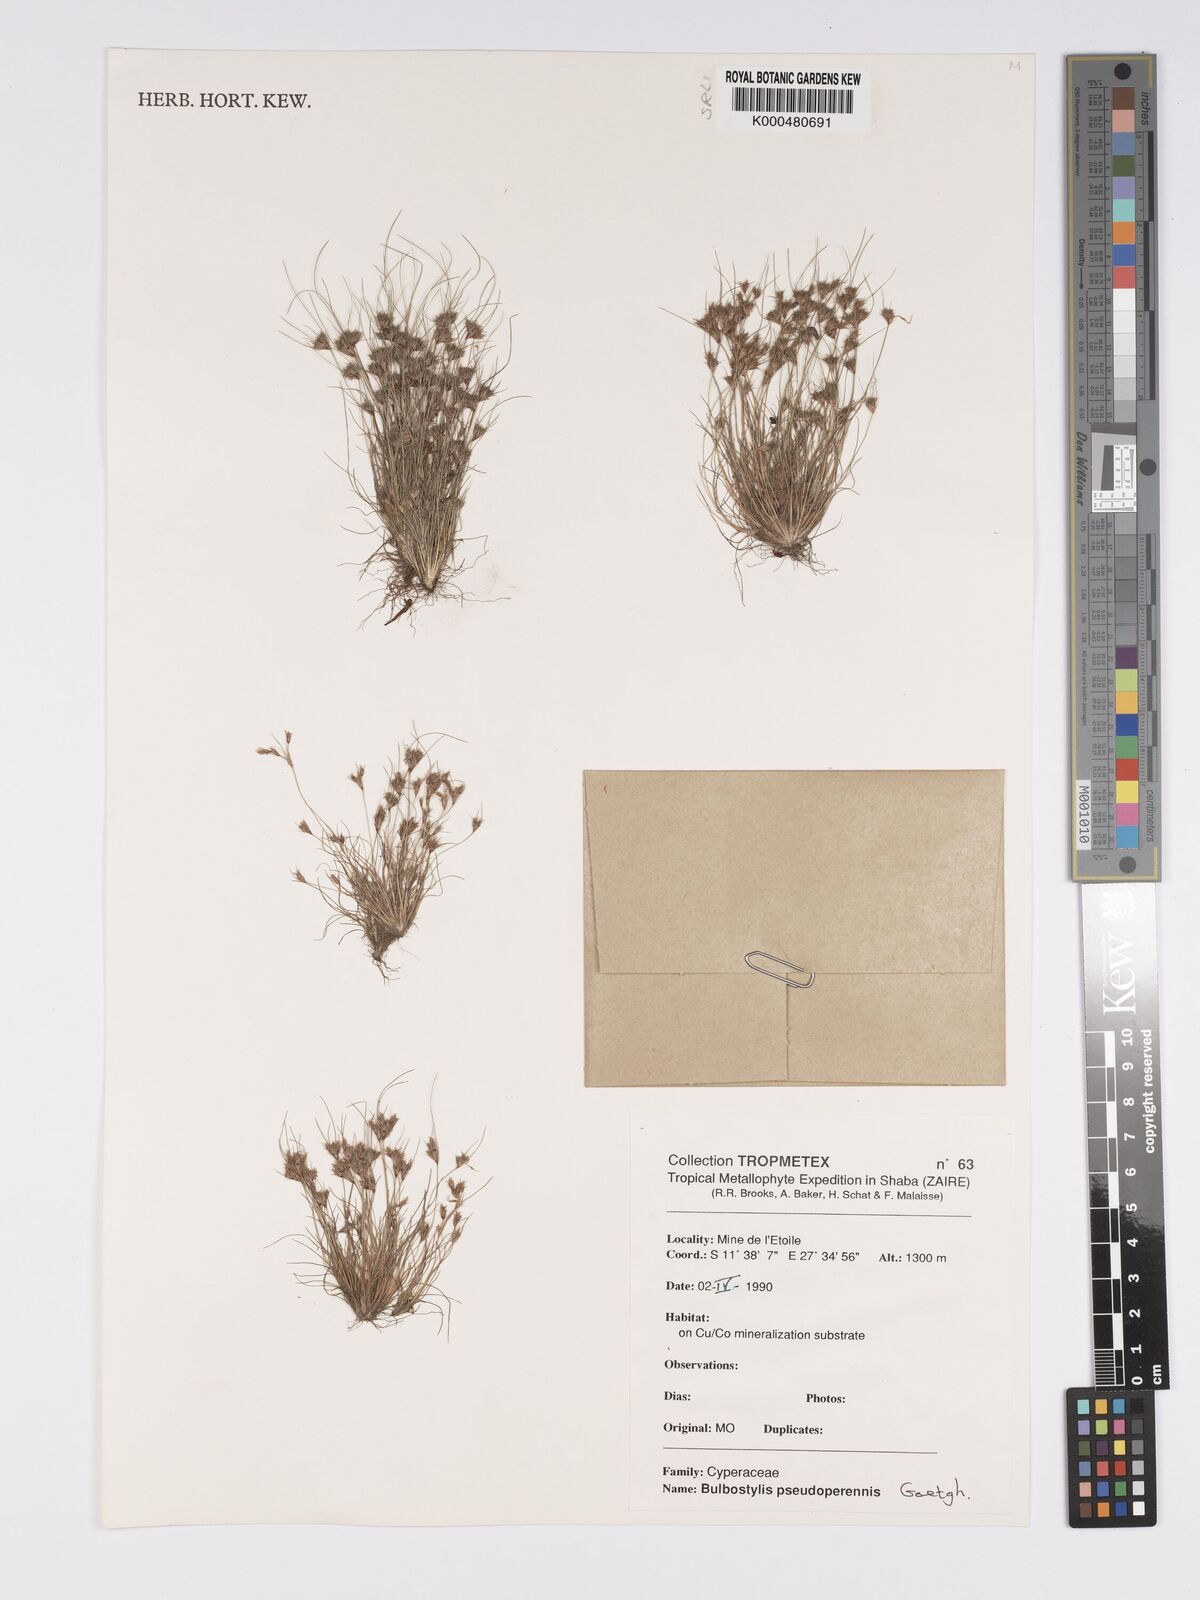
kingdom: Plantae
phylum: Tracheophyta
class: Liliopsida
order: Poales
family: Cyperaceae
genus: Bulbostylis
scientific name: Bulbostylis abbreviata
